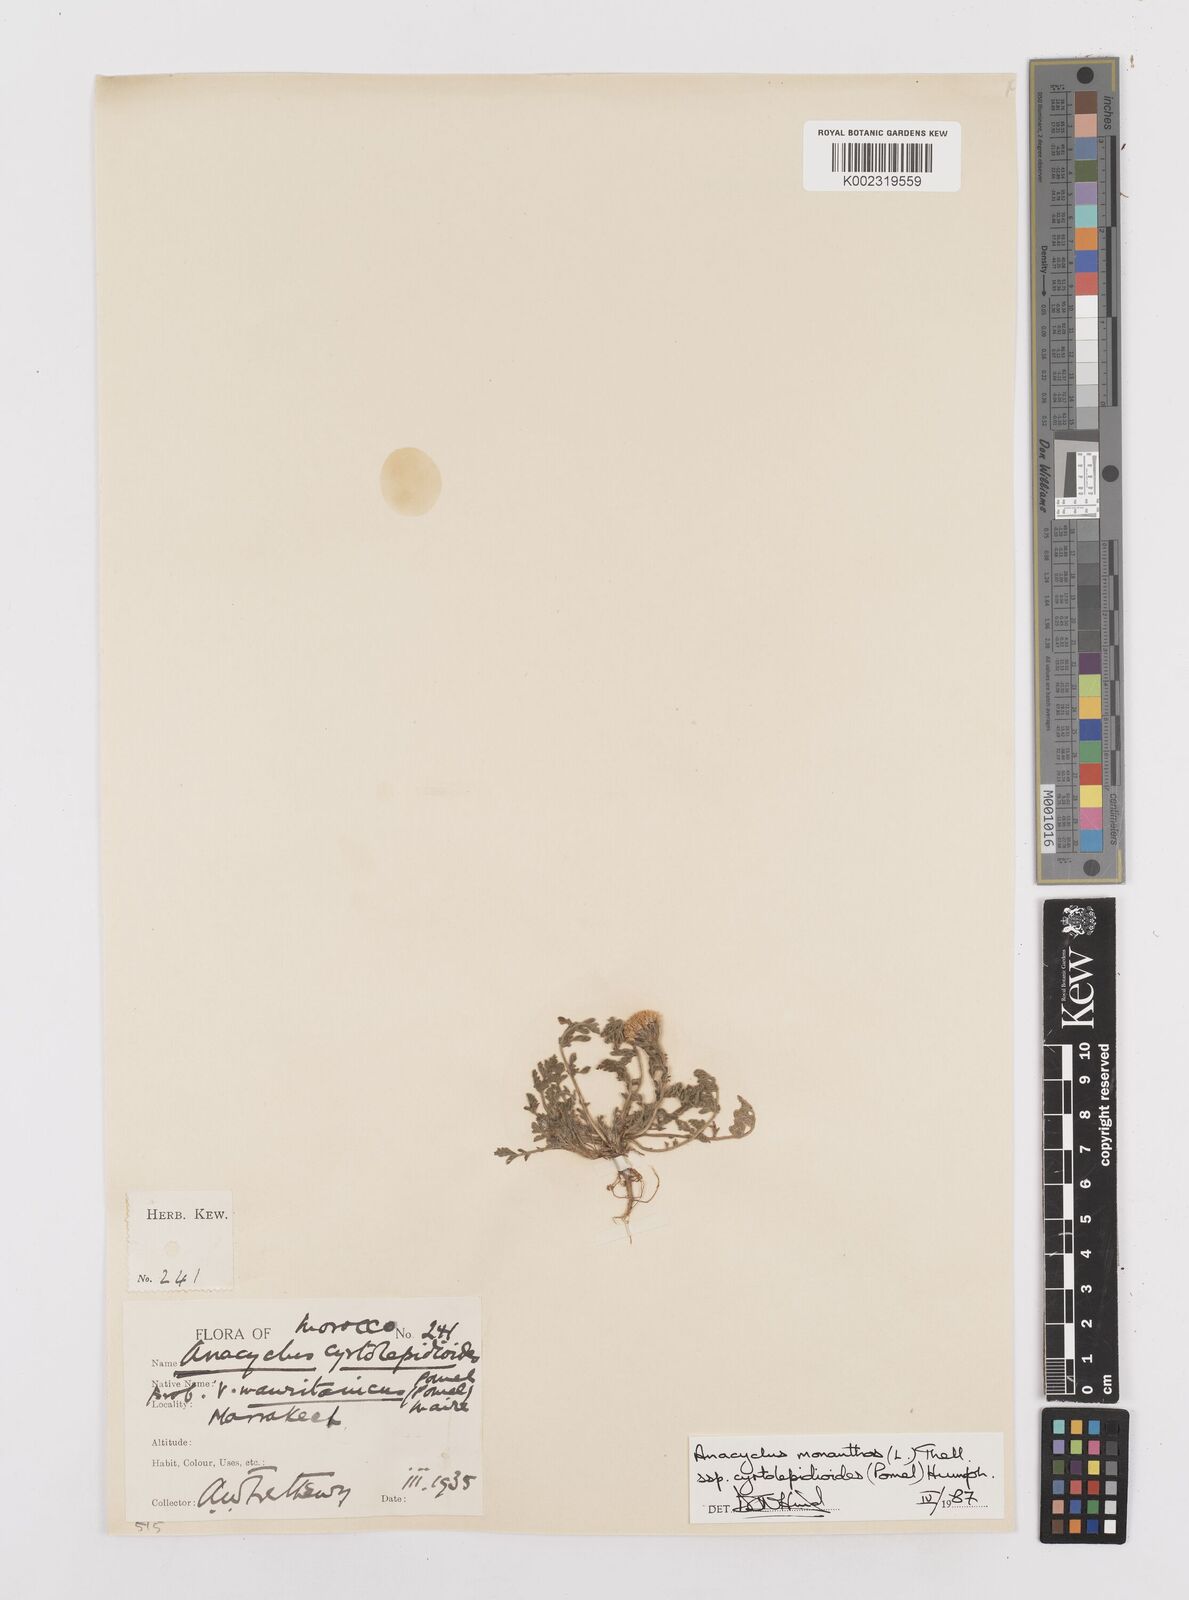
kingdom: Plantae
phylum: Tracheophyta
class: Magnoliopsida
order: Asterales
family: Asteraceae
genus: Anacyclus
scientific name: Anacyclus monanthos
